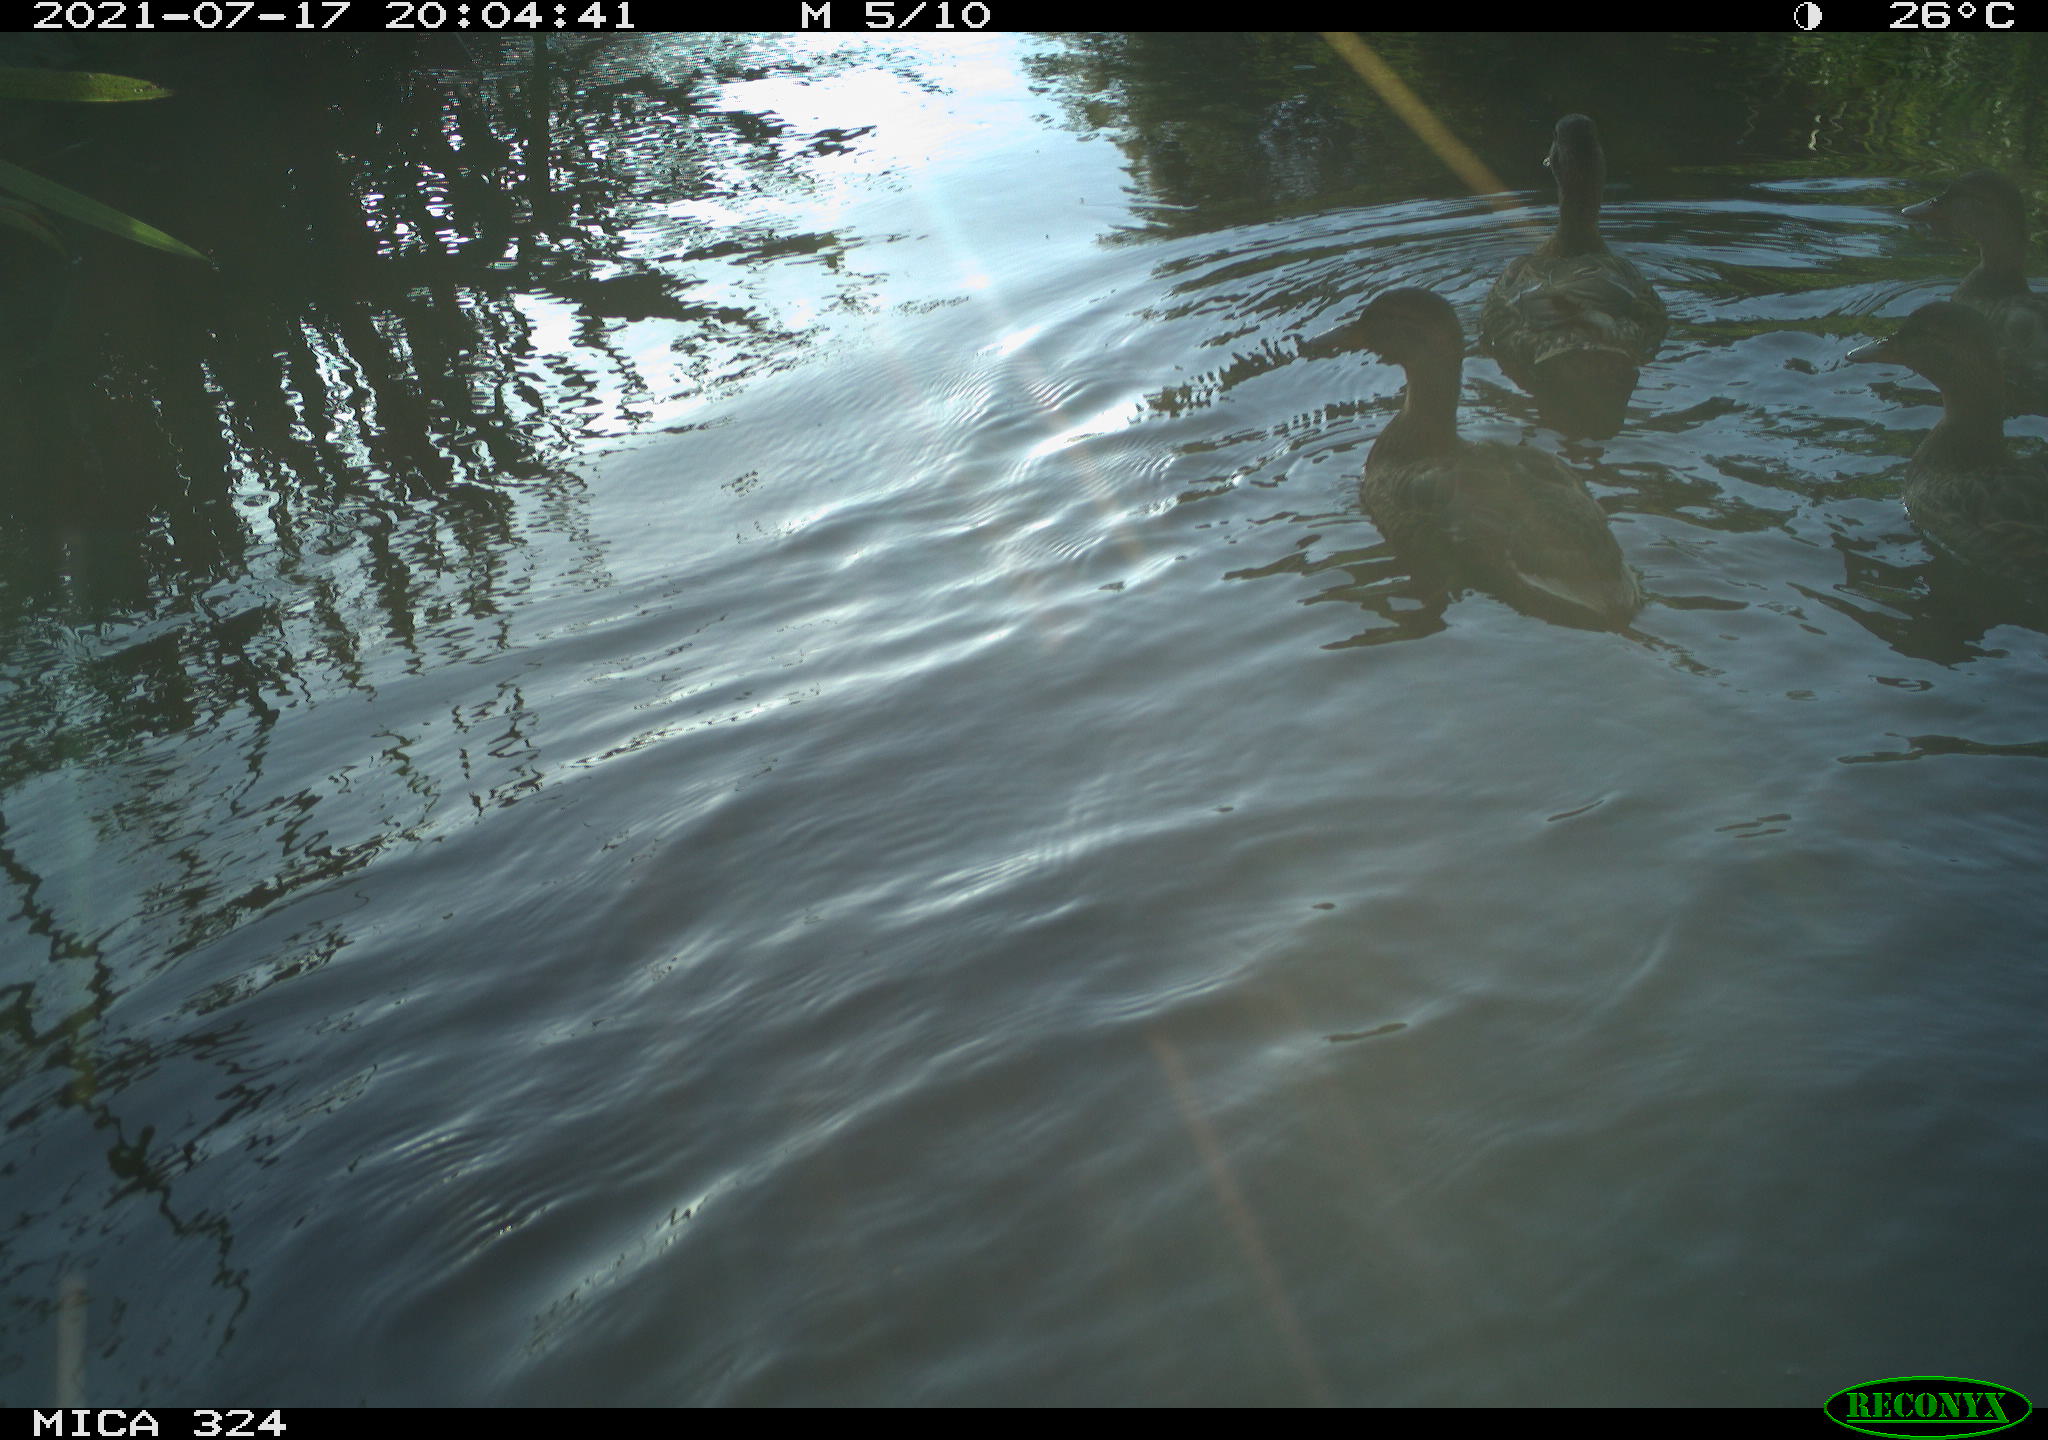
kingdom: Animalia
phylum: Chordata
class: Aves
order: Anseriformes
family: Anatidae
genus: Anas
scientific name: Anas platyrhynchos
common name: Mallard
